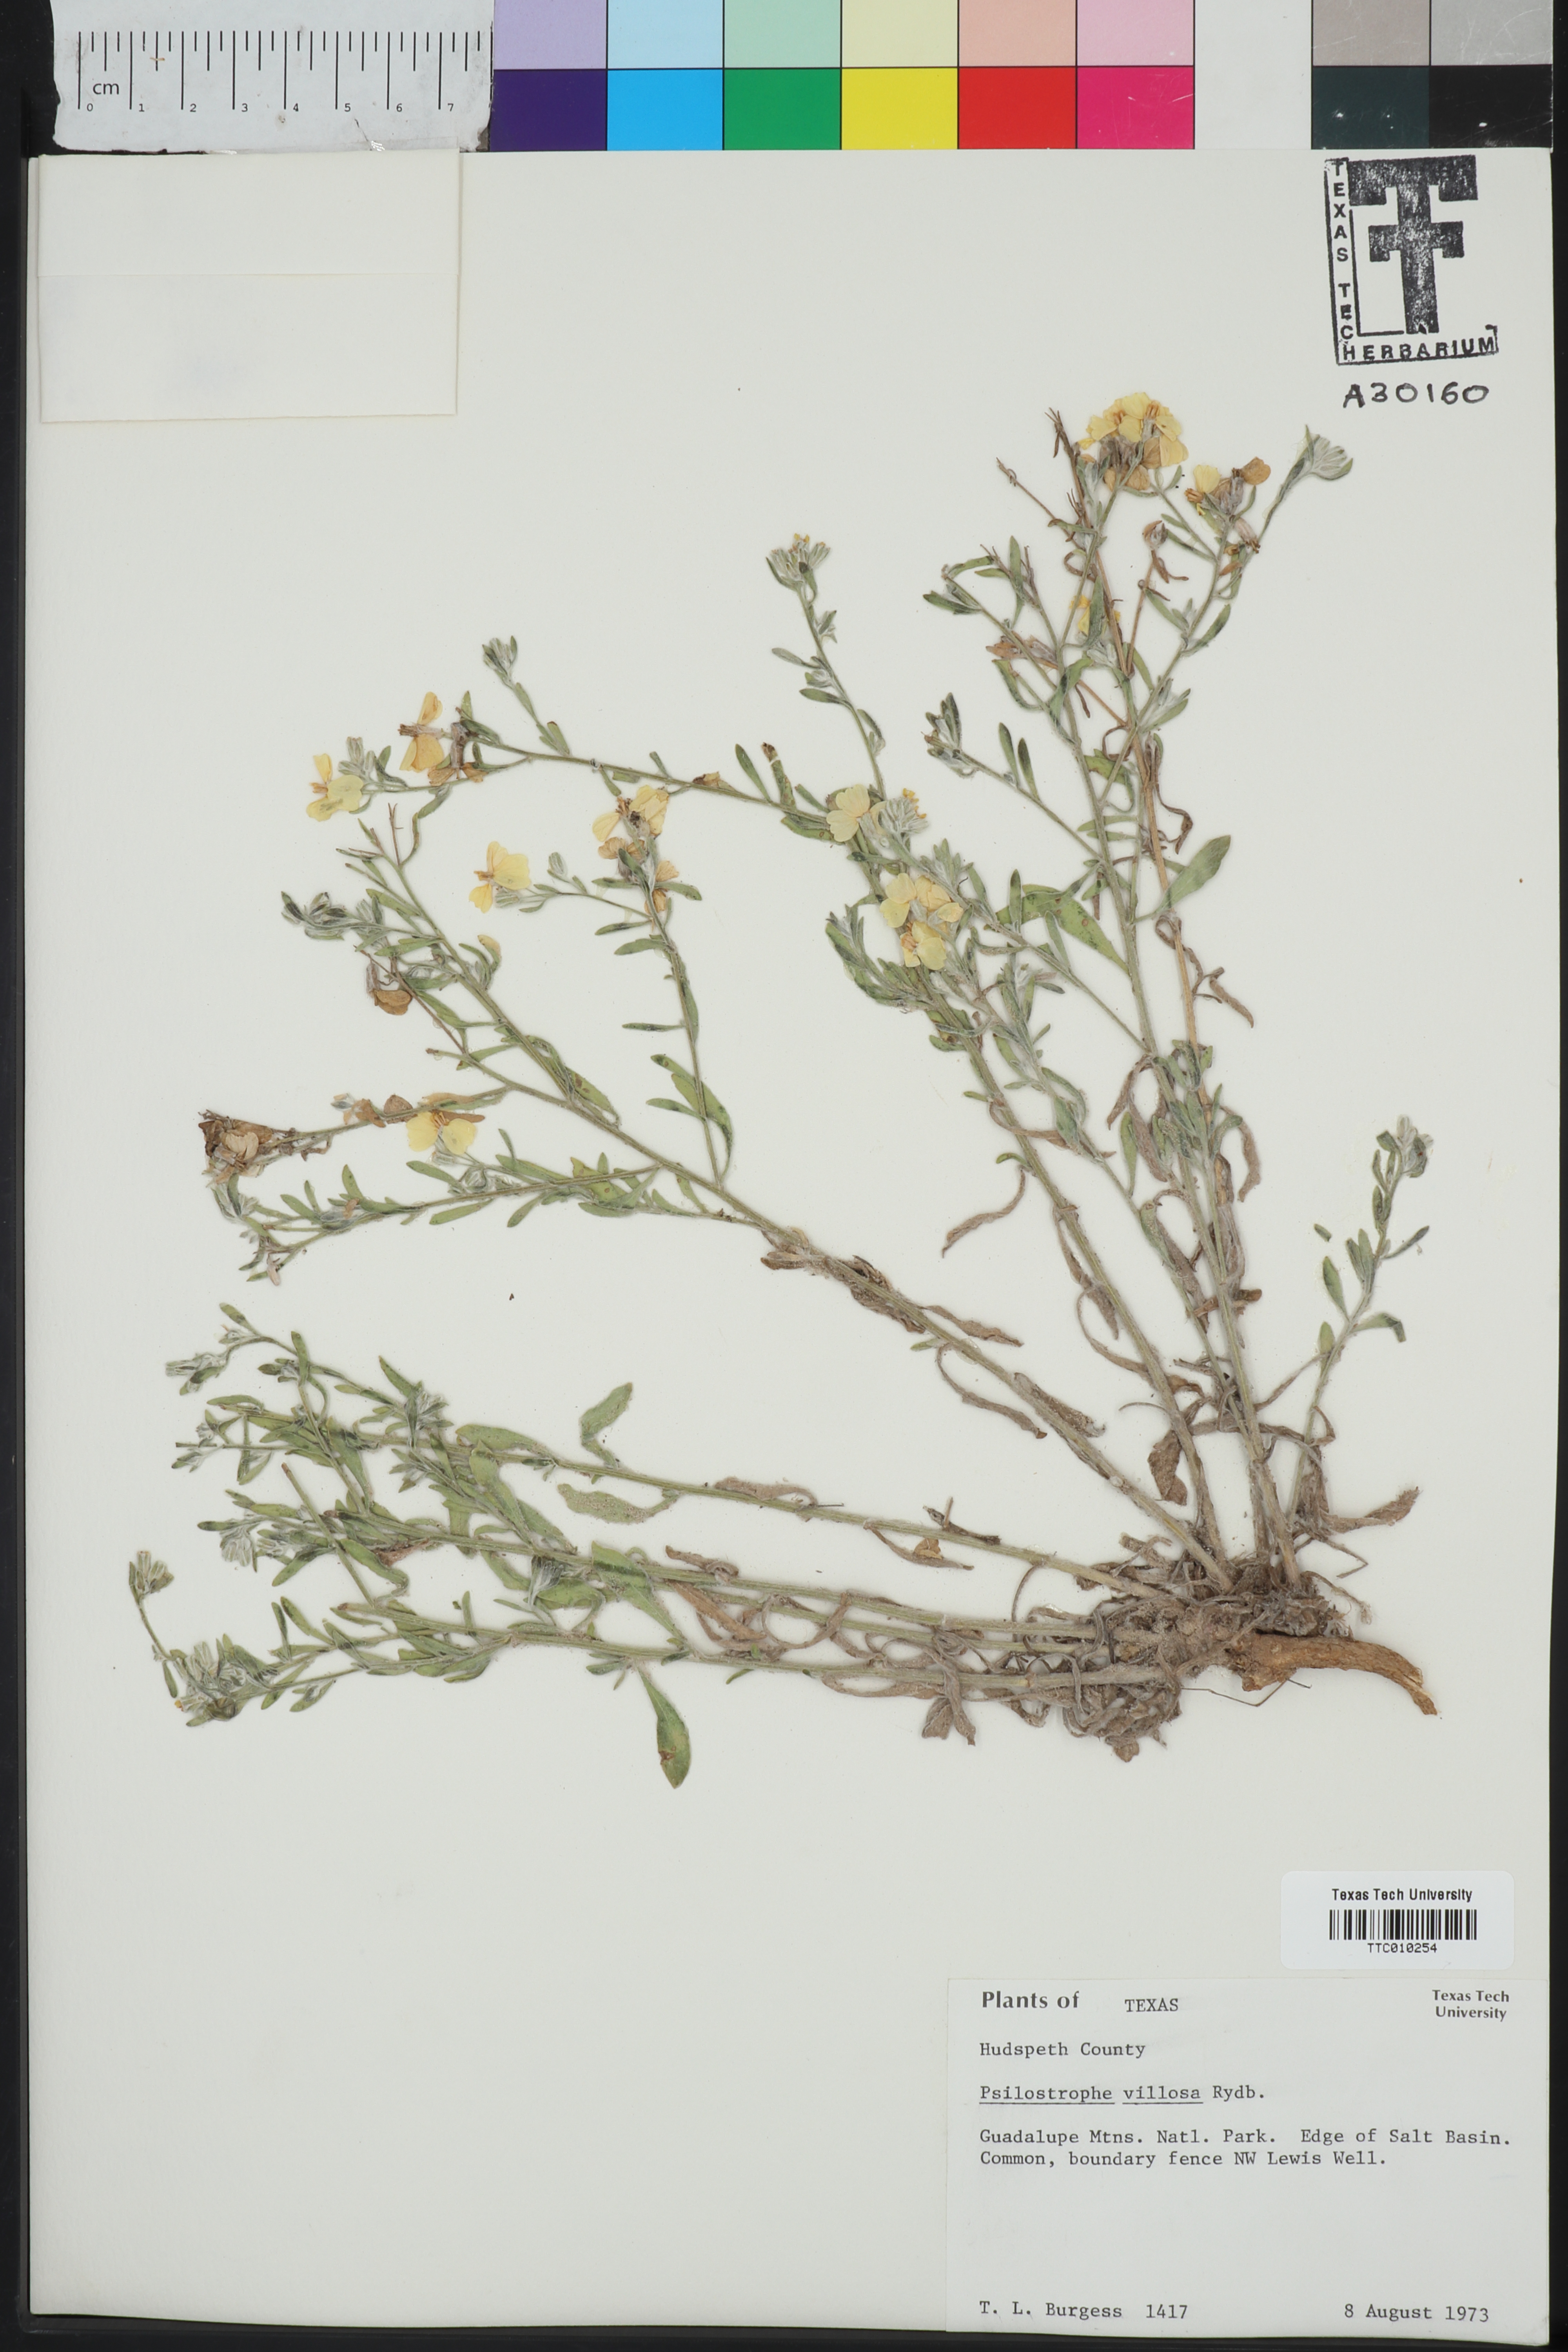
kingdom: Plantae
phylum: Tracheophyta
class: Magnoliopsida
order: Asterales
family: Asteraceae
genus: Psilostrophe
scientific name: Psilostrophe villosa
